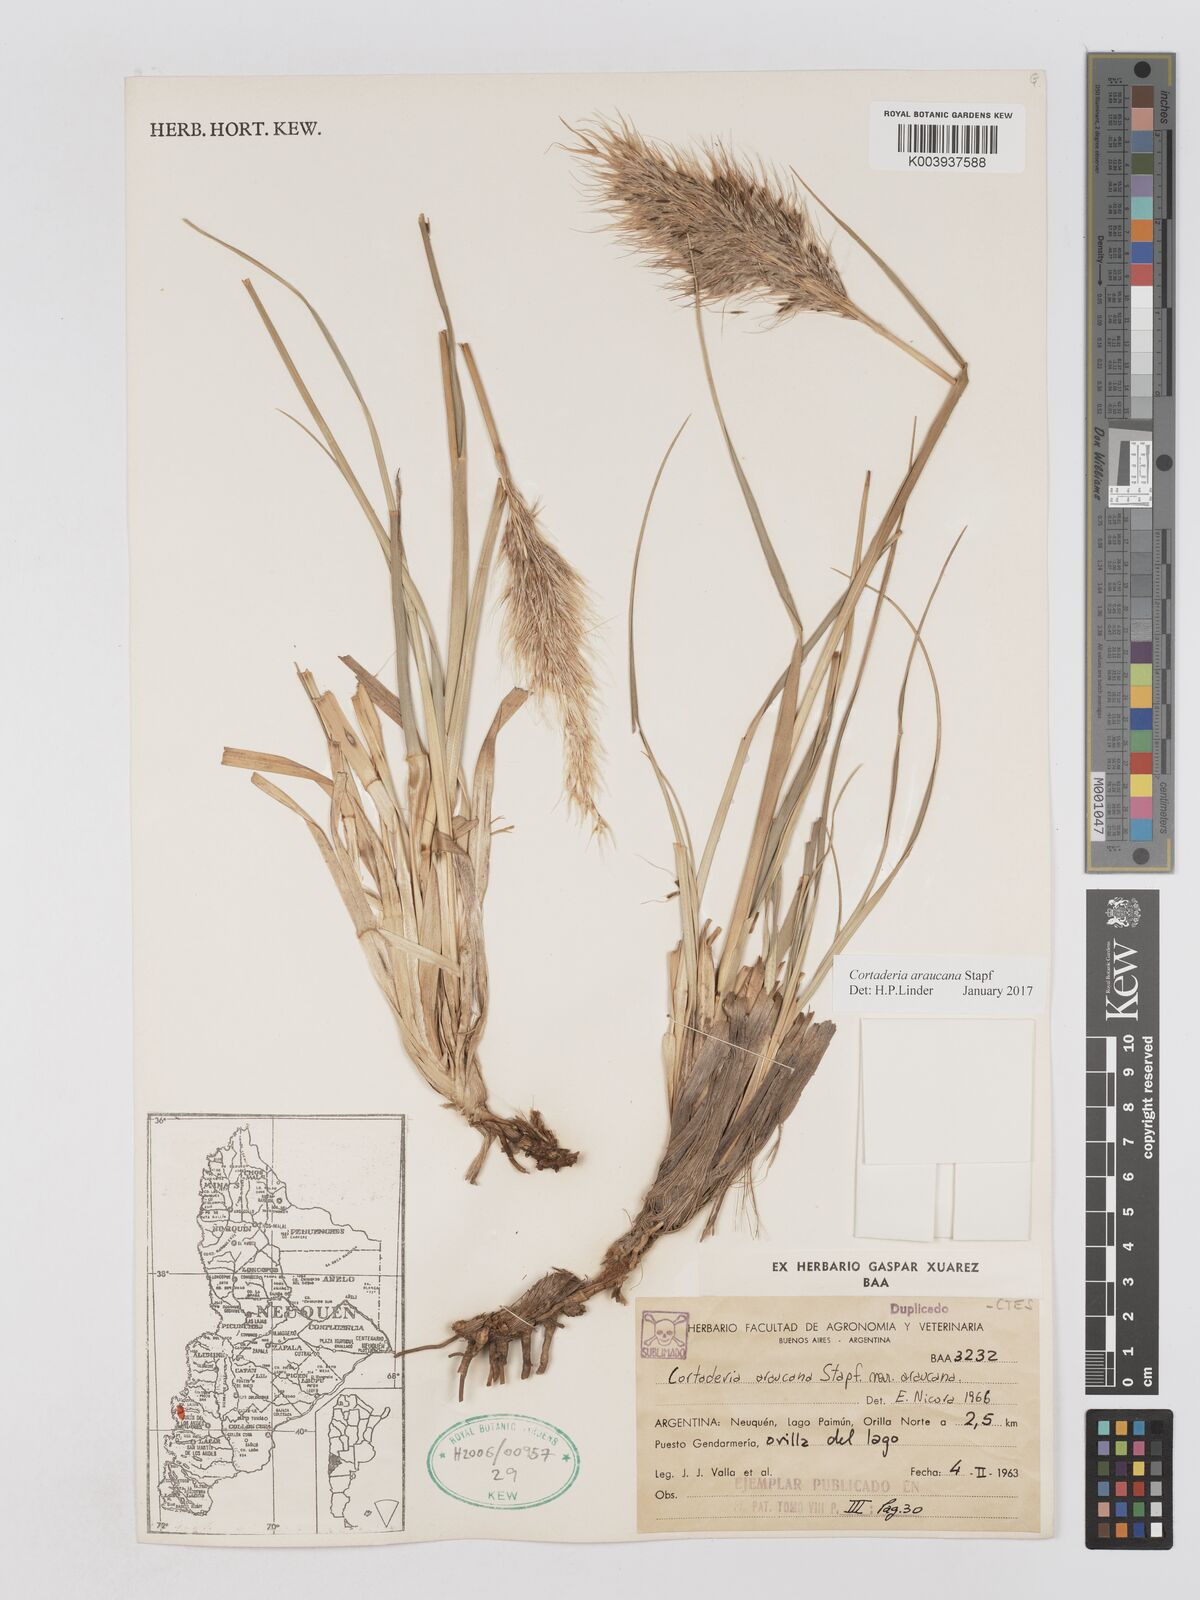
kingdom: Plantae
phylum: Tracheophyta
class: Liliopsida
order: Poales
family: Poaceae
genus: Cortaderia
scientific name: Cortaderia araucana
